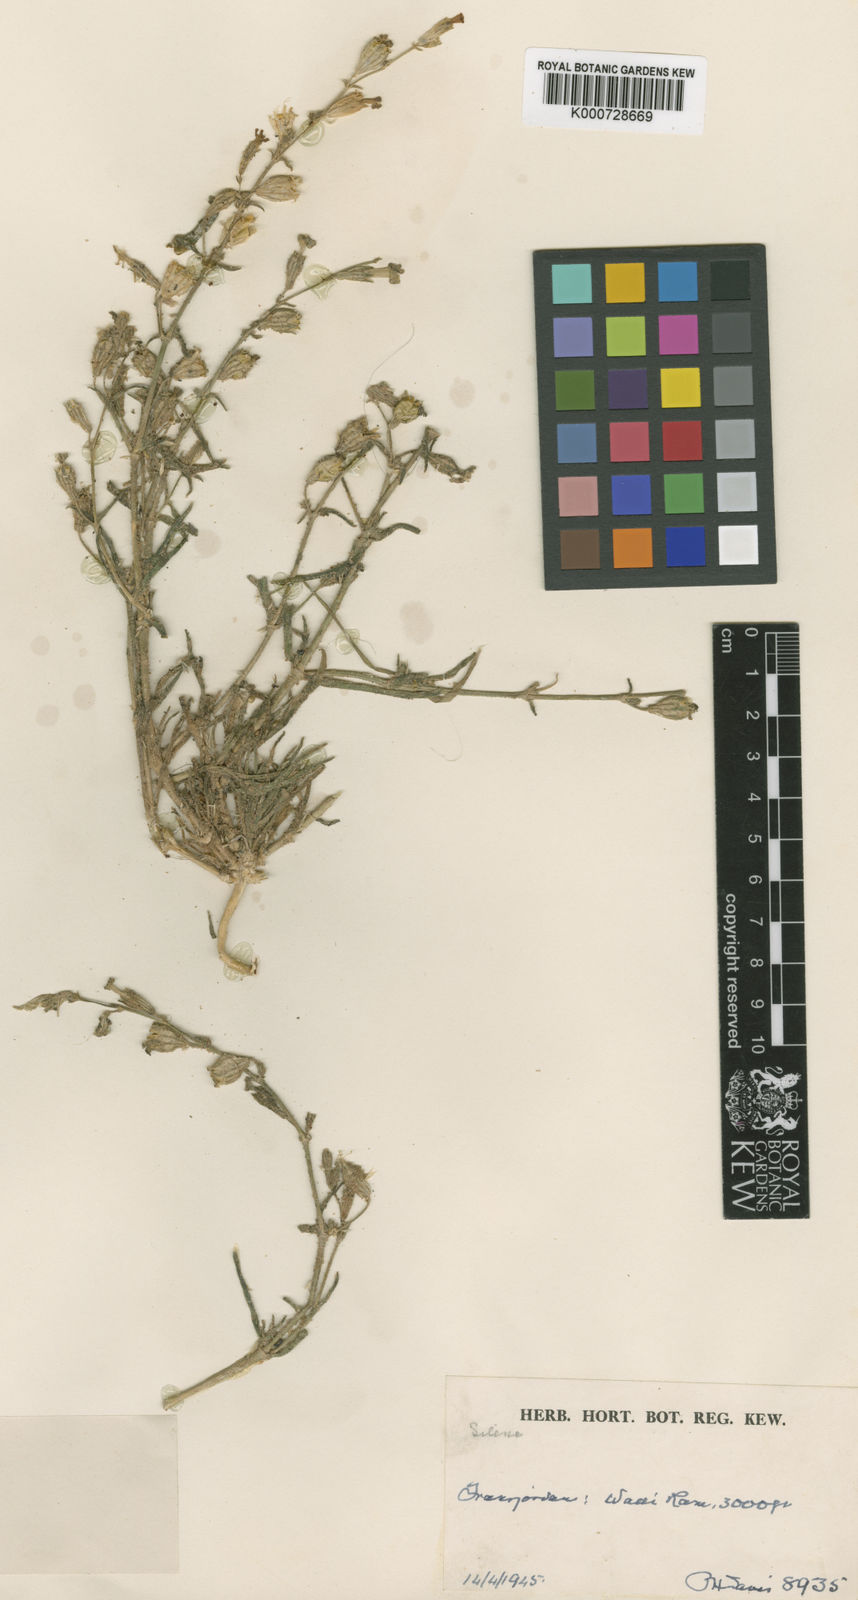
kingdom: Plantae
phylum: Tracheophyta
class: Magnoliopsida
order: Caryophyllales
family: Caryophyllaceae
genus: Silene
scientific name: Silene moabitica
